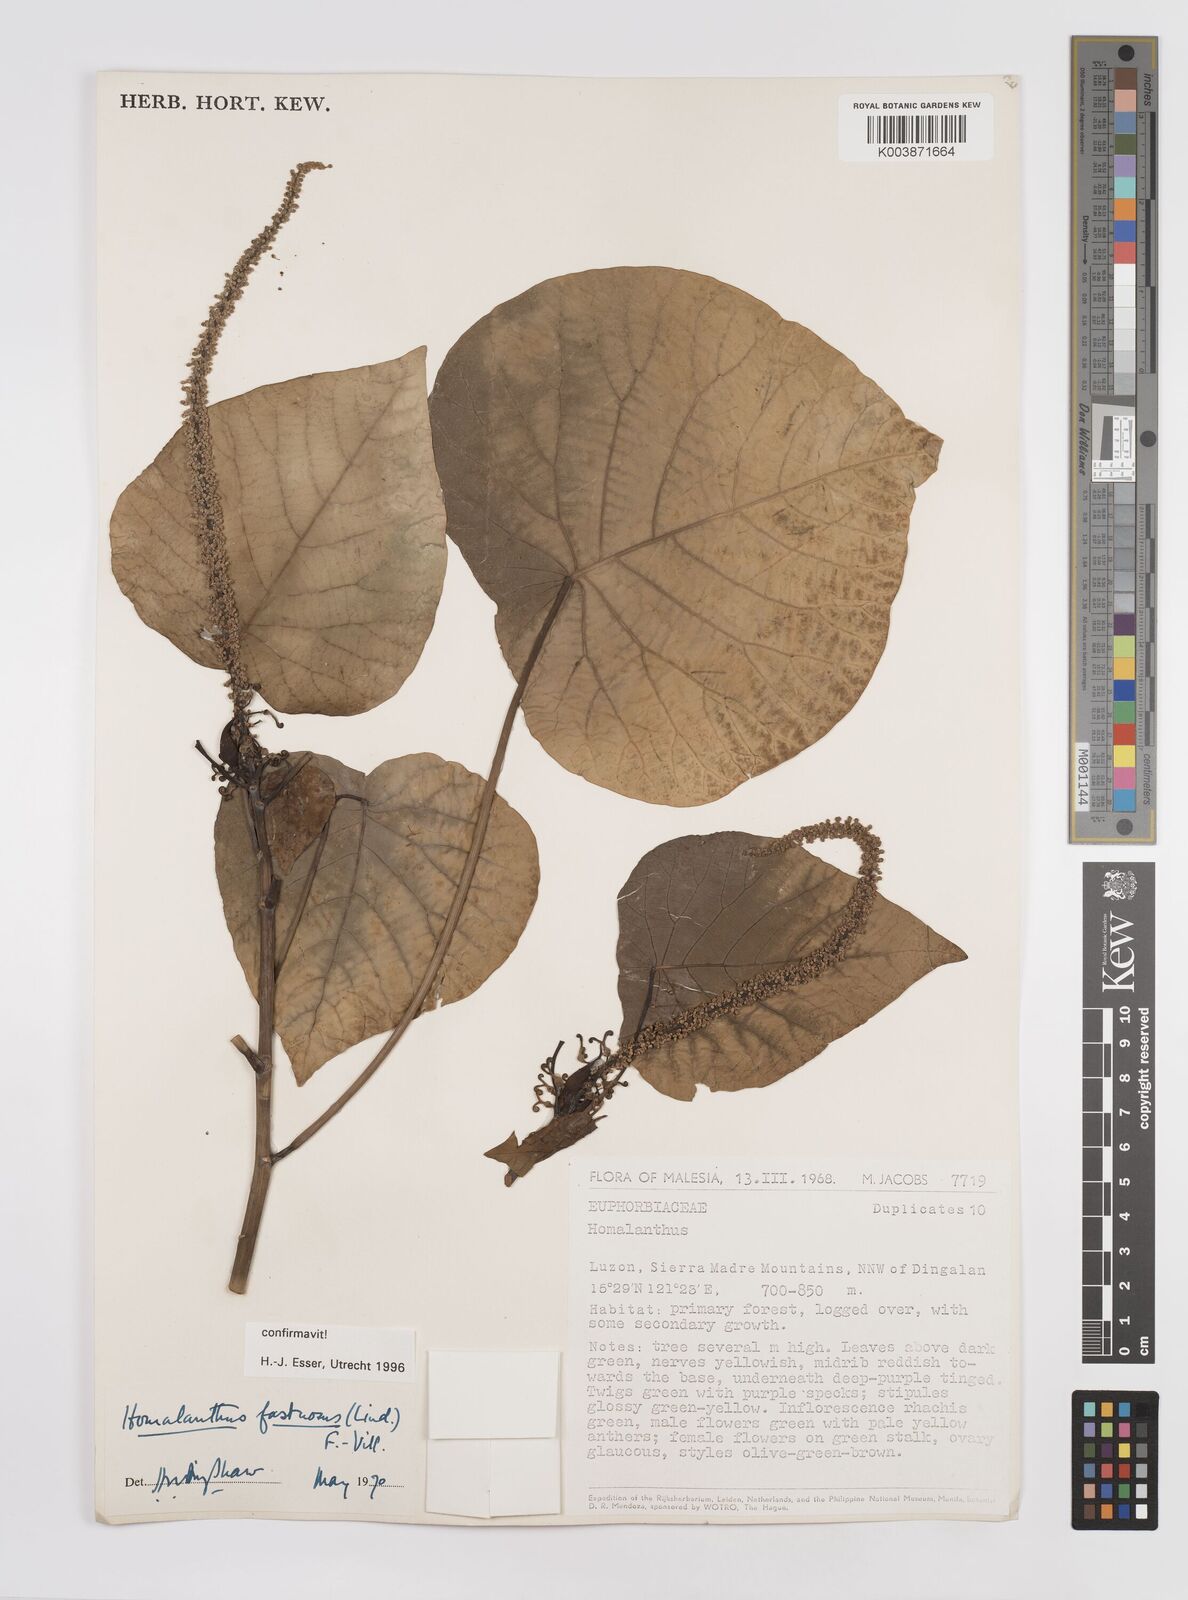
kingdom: Plantae
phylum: Tracheophyta
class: Magnoliopsida
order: Malpighiales
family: Euphorbiaceae
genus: Homalanthus
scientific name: Homalanthus fastuosus
